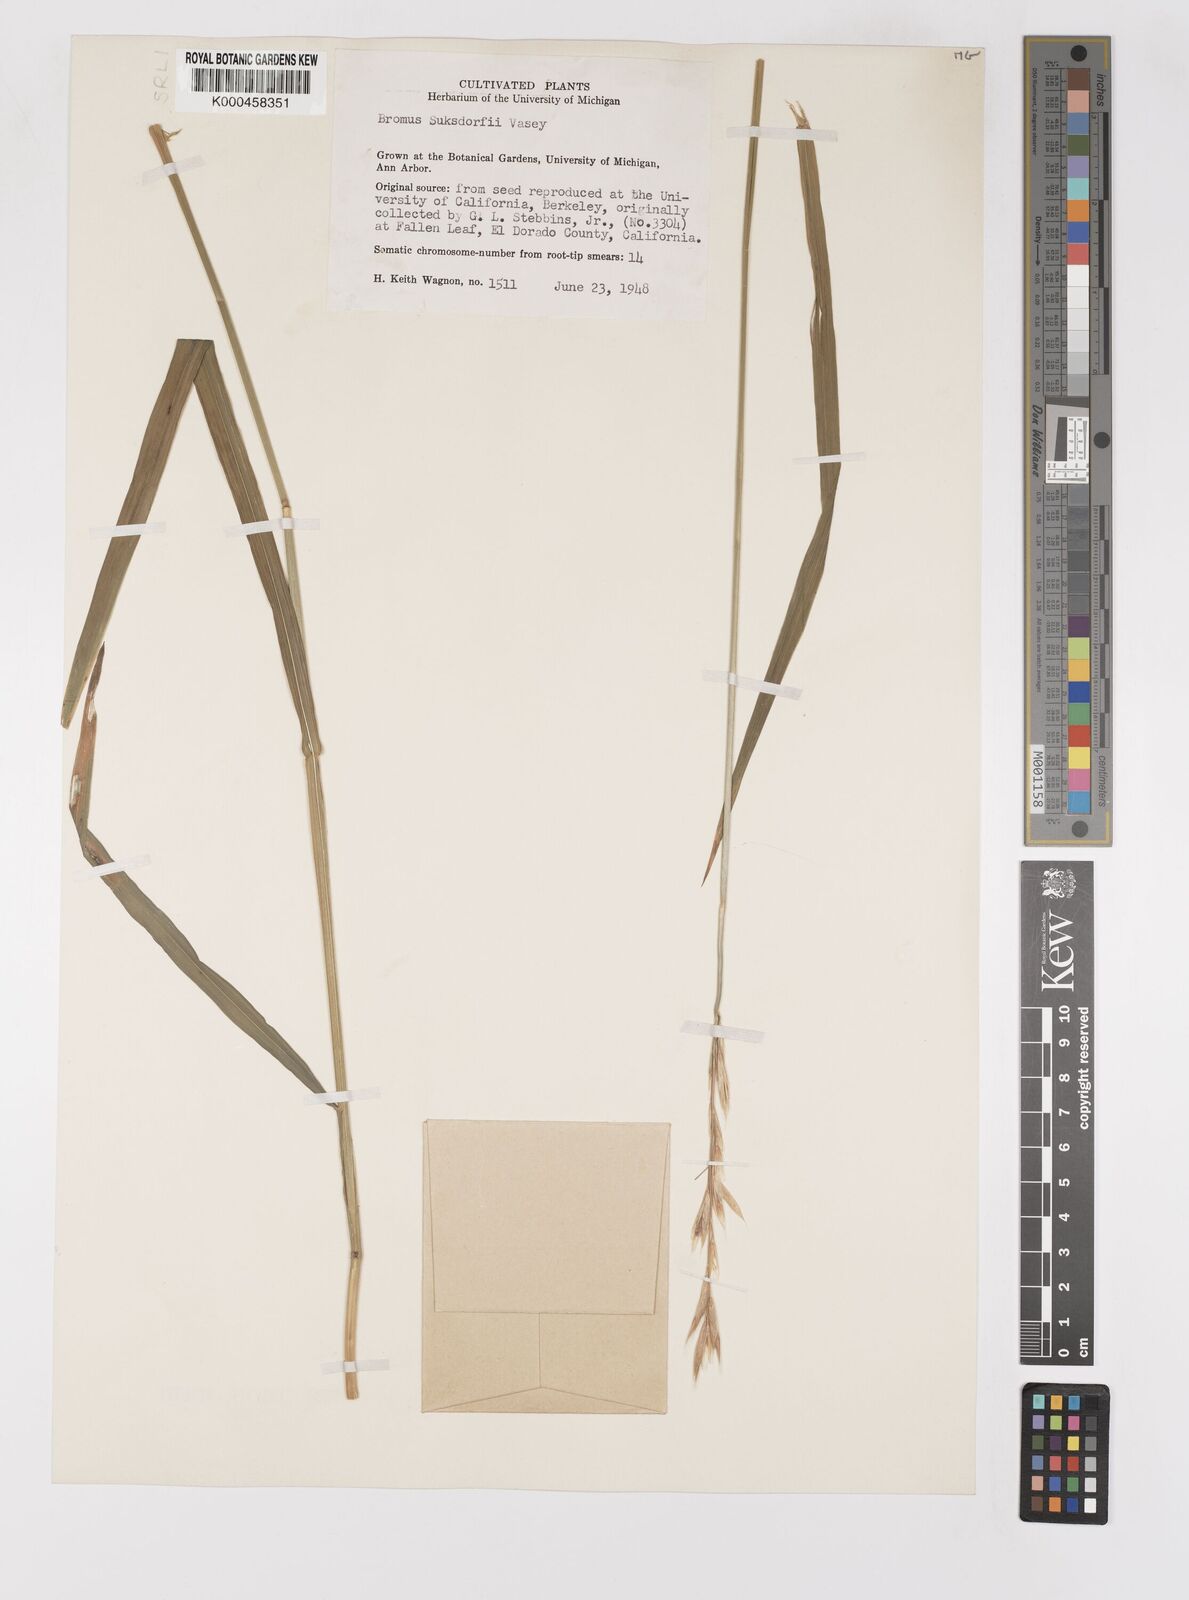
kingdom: Plantae
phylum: Tracheophyta
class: Liliopsida
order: Poales
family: Poaceae
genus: Bromus
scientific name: Bromus suksdorfii
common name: Suksdorf's brome
